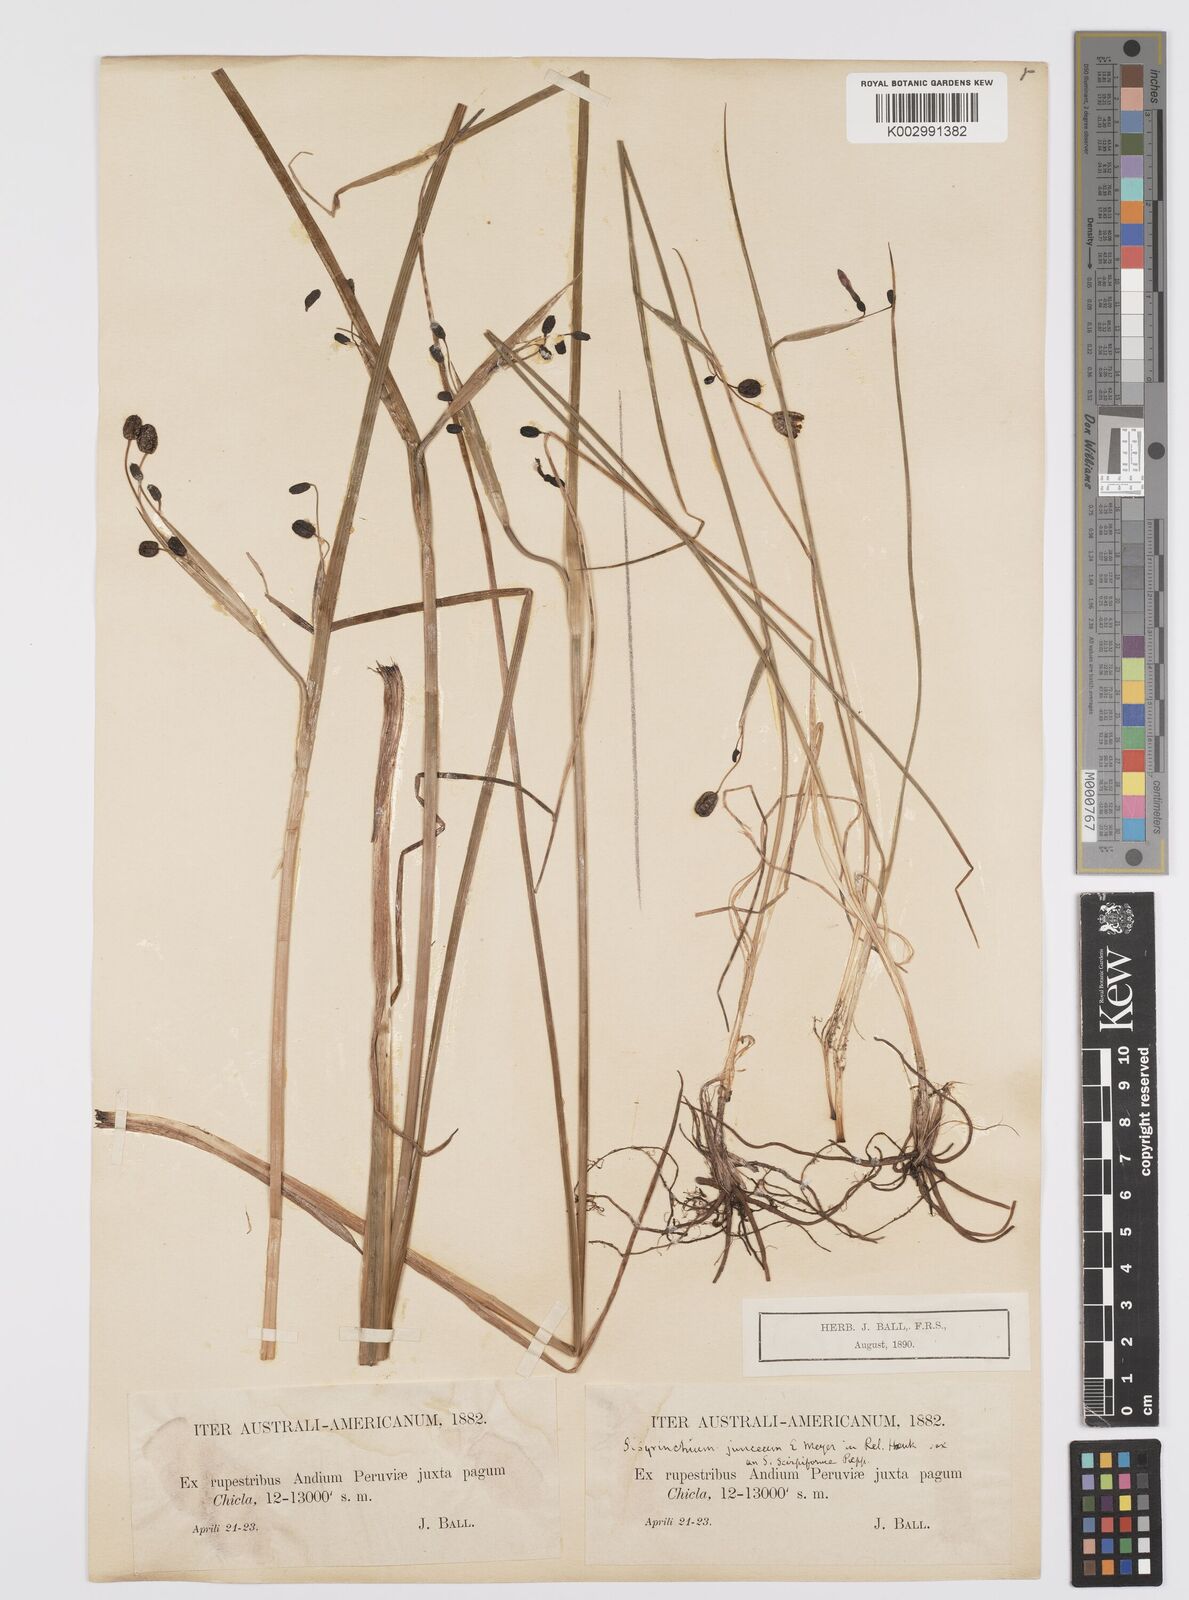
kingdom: Plantae
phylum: Tracheophyta
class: Liliopsida
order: Asparagales
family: Iridaceae
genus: Olsynium
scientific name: Olsynium junceum
